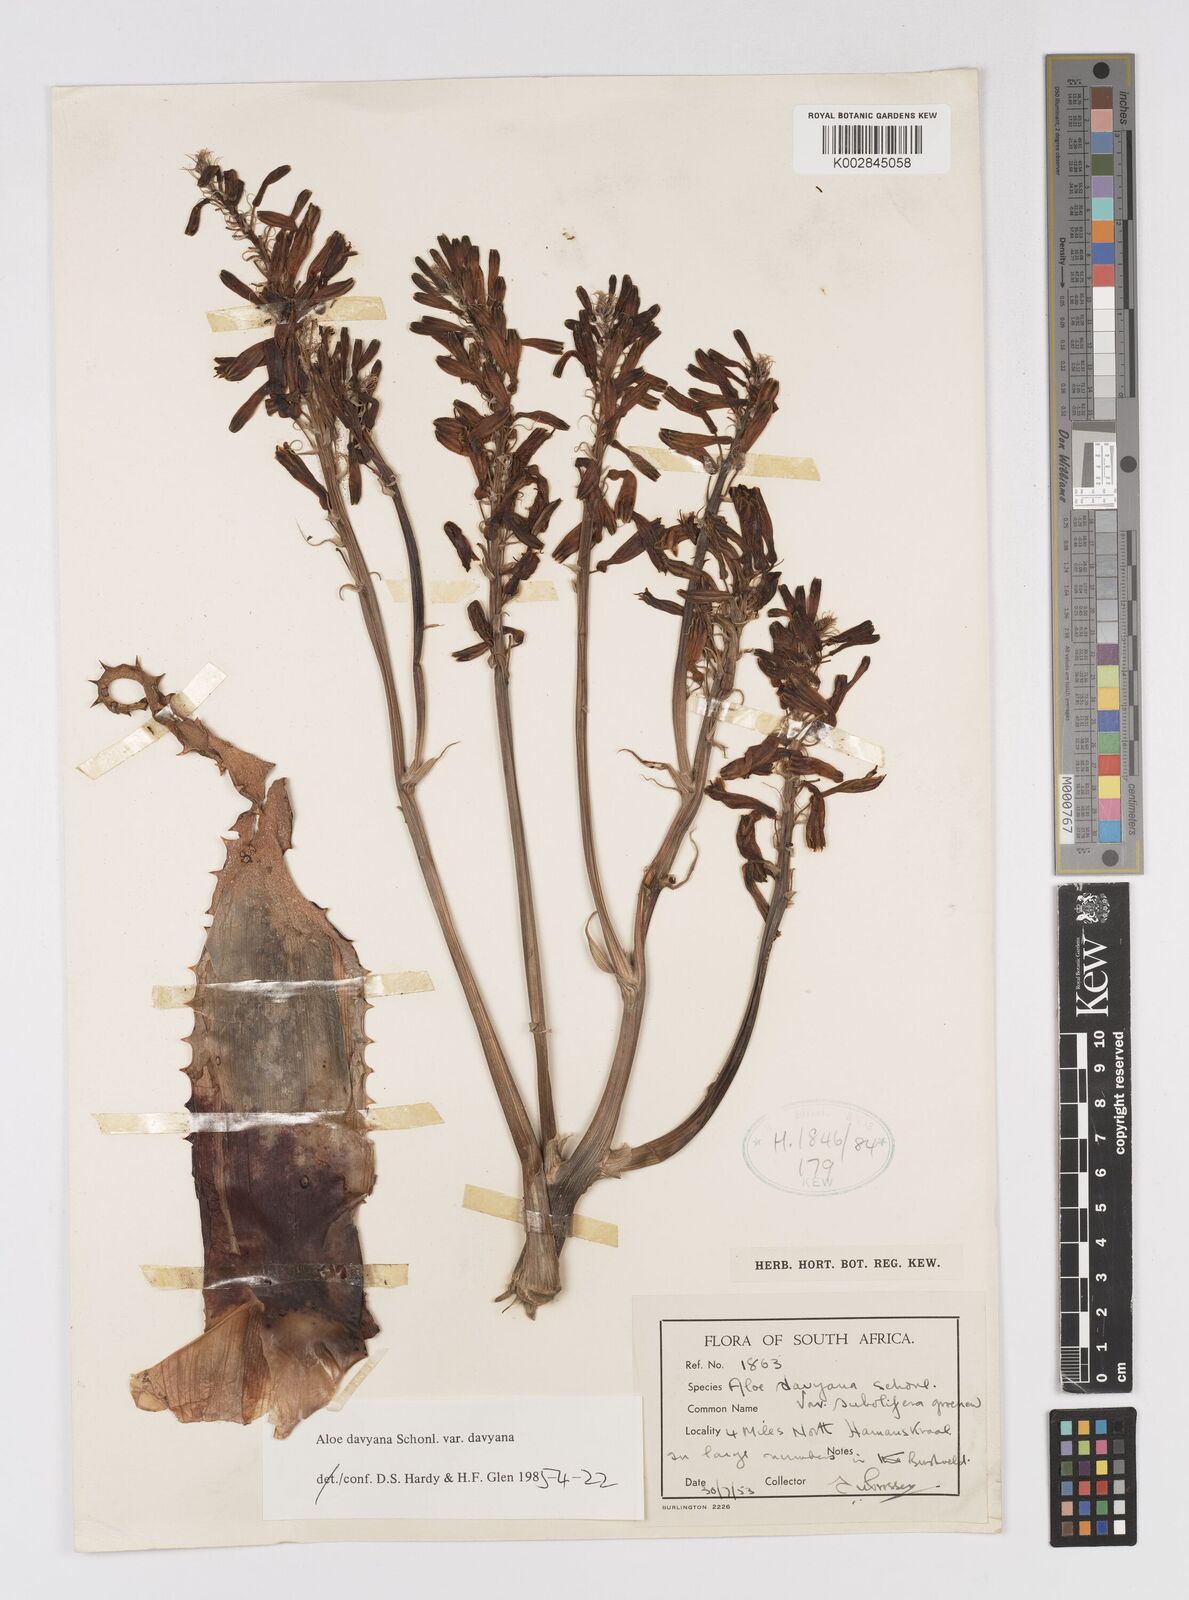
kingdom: Plantae
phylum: Tracheophyta
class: Liliopsida
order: Asparagales
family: Asphodelaceae
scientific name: Asphodelaceae
